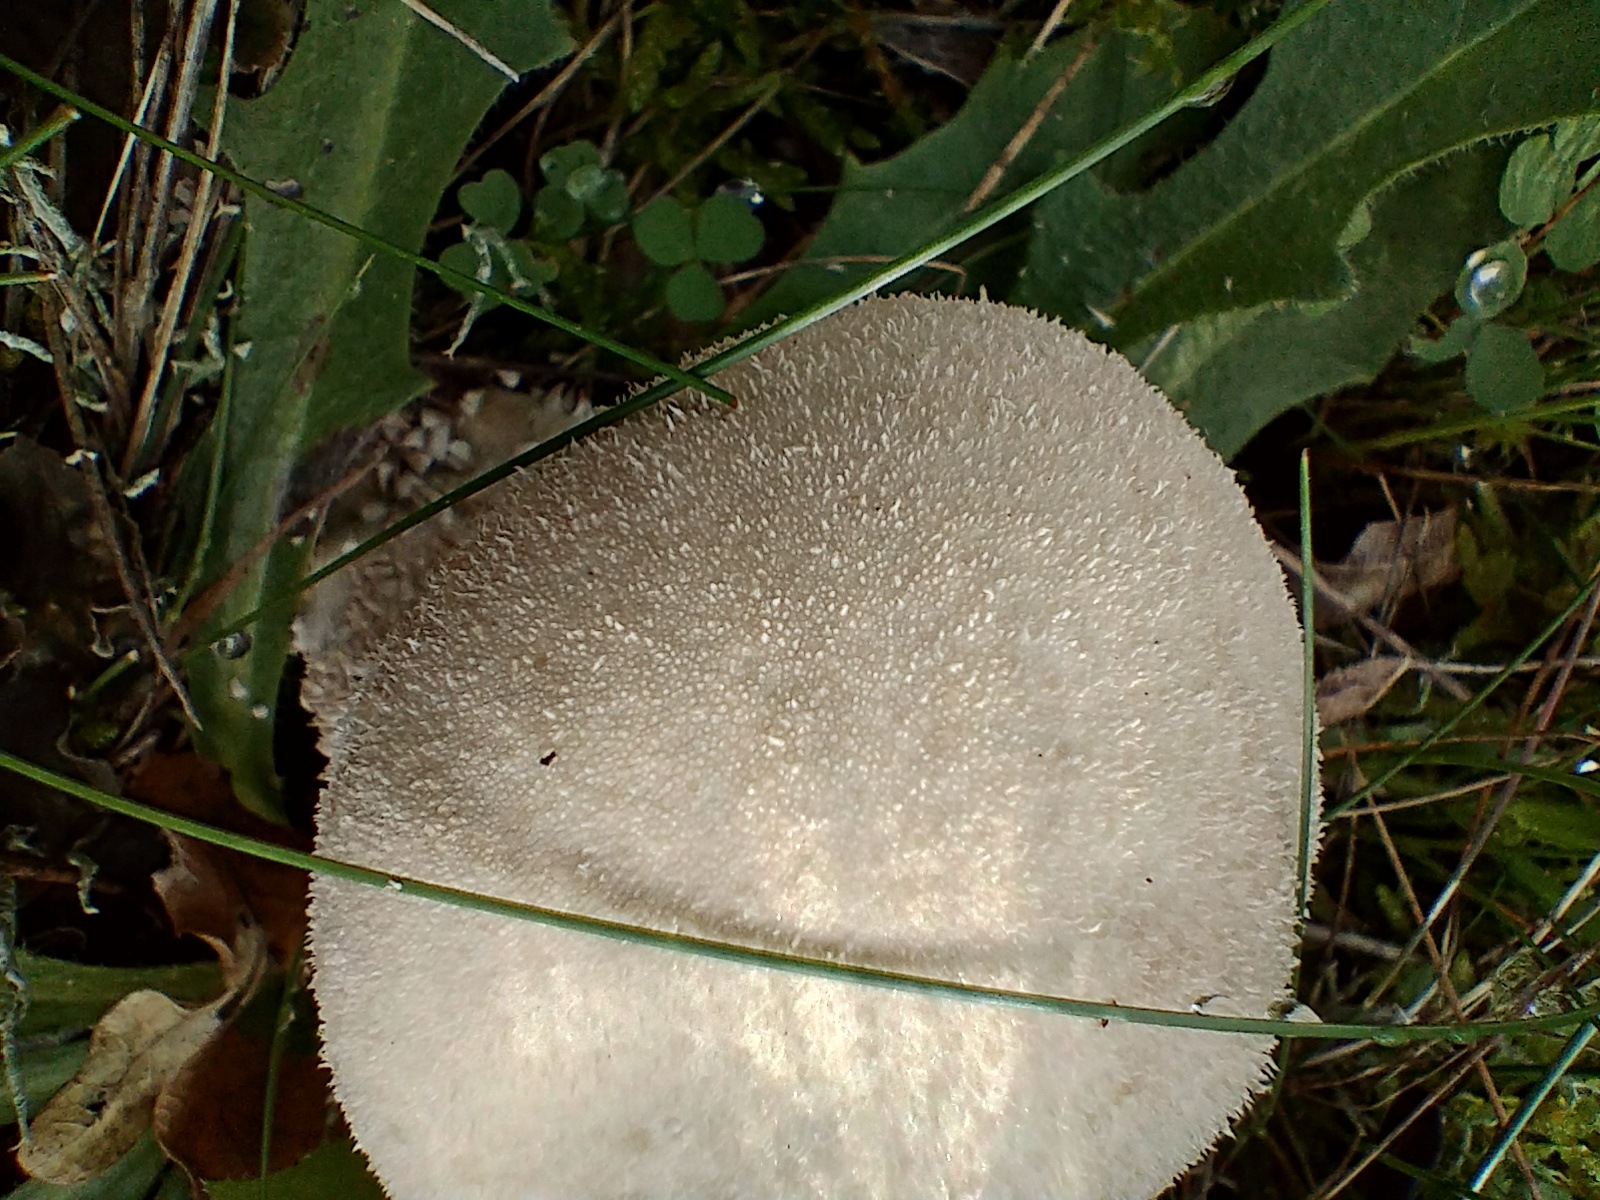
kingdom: Fungi
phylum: Basidiomycota
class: Agaricomycetes
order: Agaricales
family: Lycoperdaceae
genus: Lycoperdon
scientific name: Lycoperdon excipuliforme
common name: højstokket støvbold
